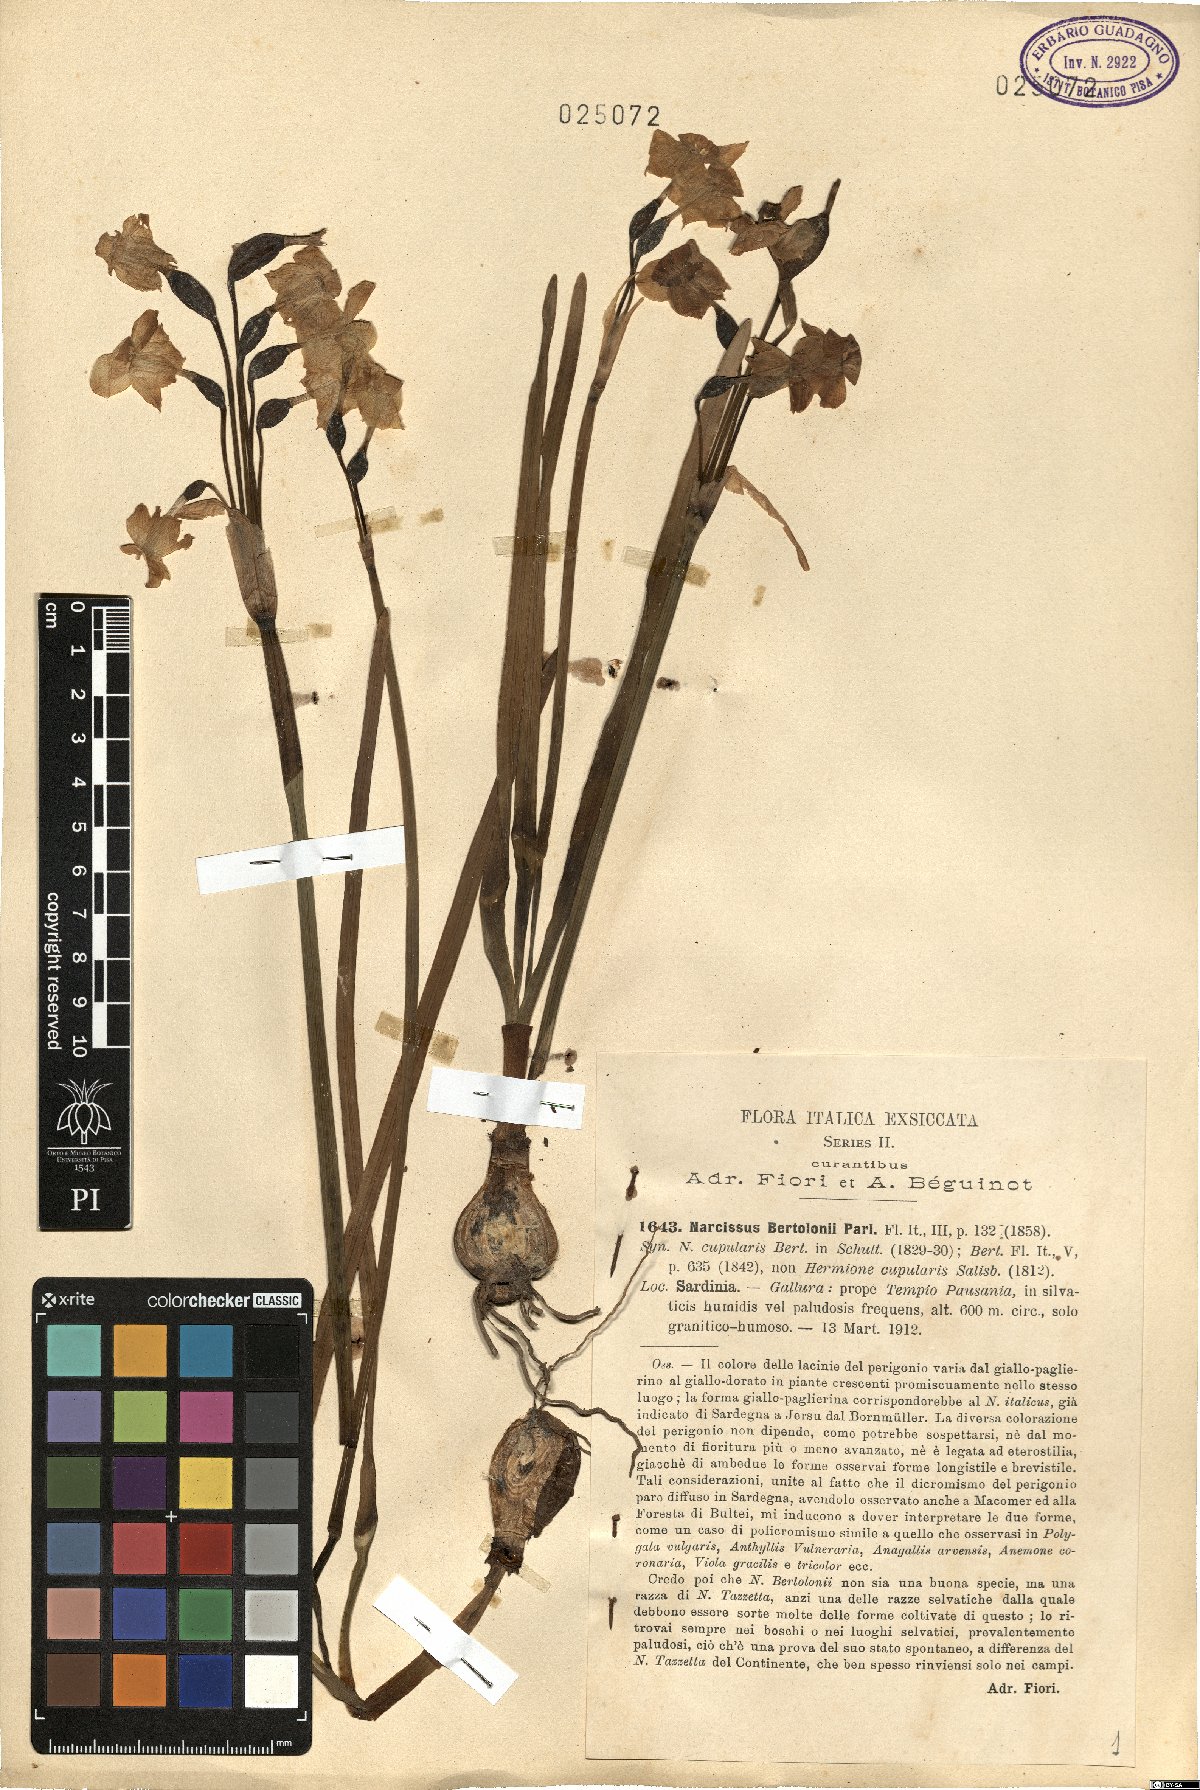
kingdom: Plantae
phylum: Tracheophyta
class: Liliopsida
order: Asparagales
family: Amaryllidaceae
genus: Narcissus
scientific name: Narcissus bertolonii
